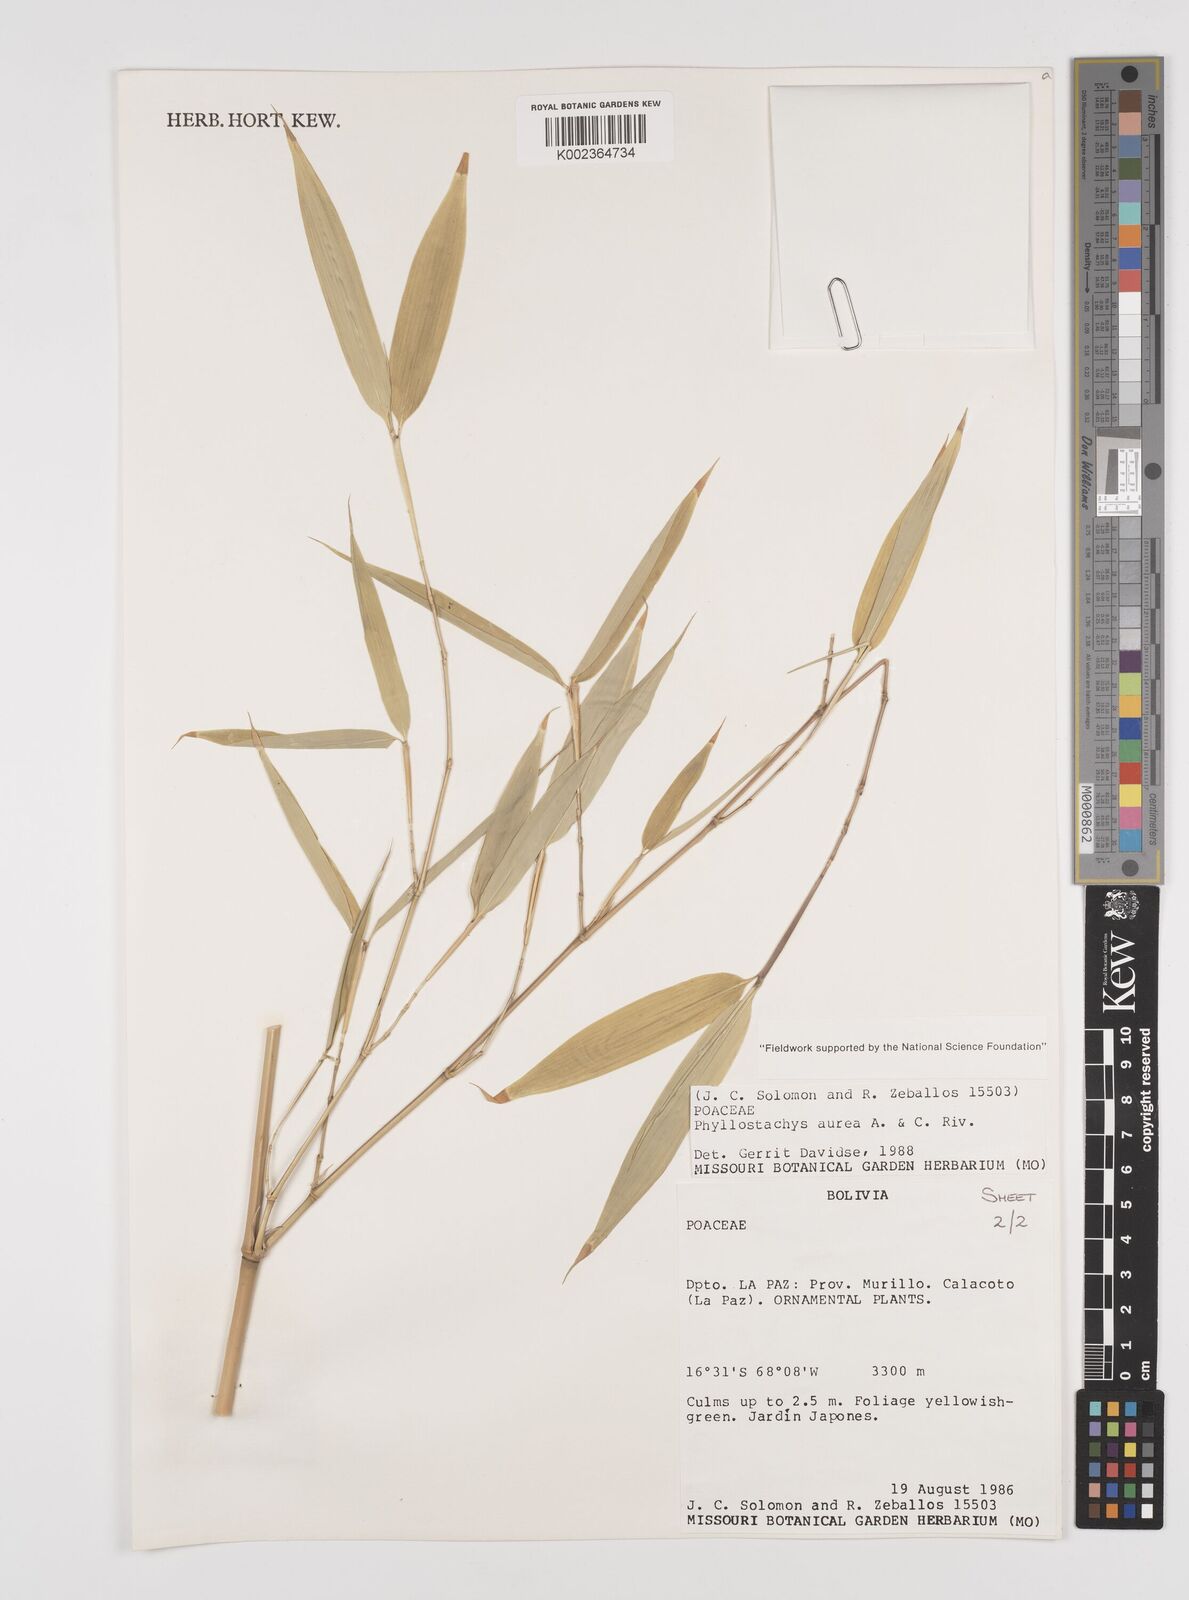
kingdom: Plantae
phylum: Tracheophyta
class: Liliopsida
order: Poales
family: Poaceae
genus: Phyllostachys
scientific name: Phyllostachys aurea
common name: Golden bamboo
